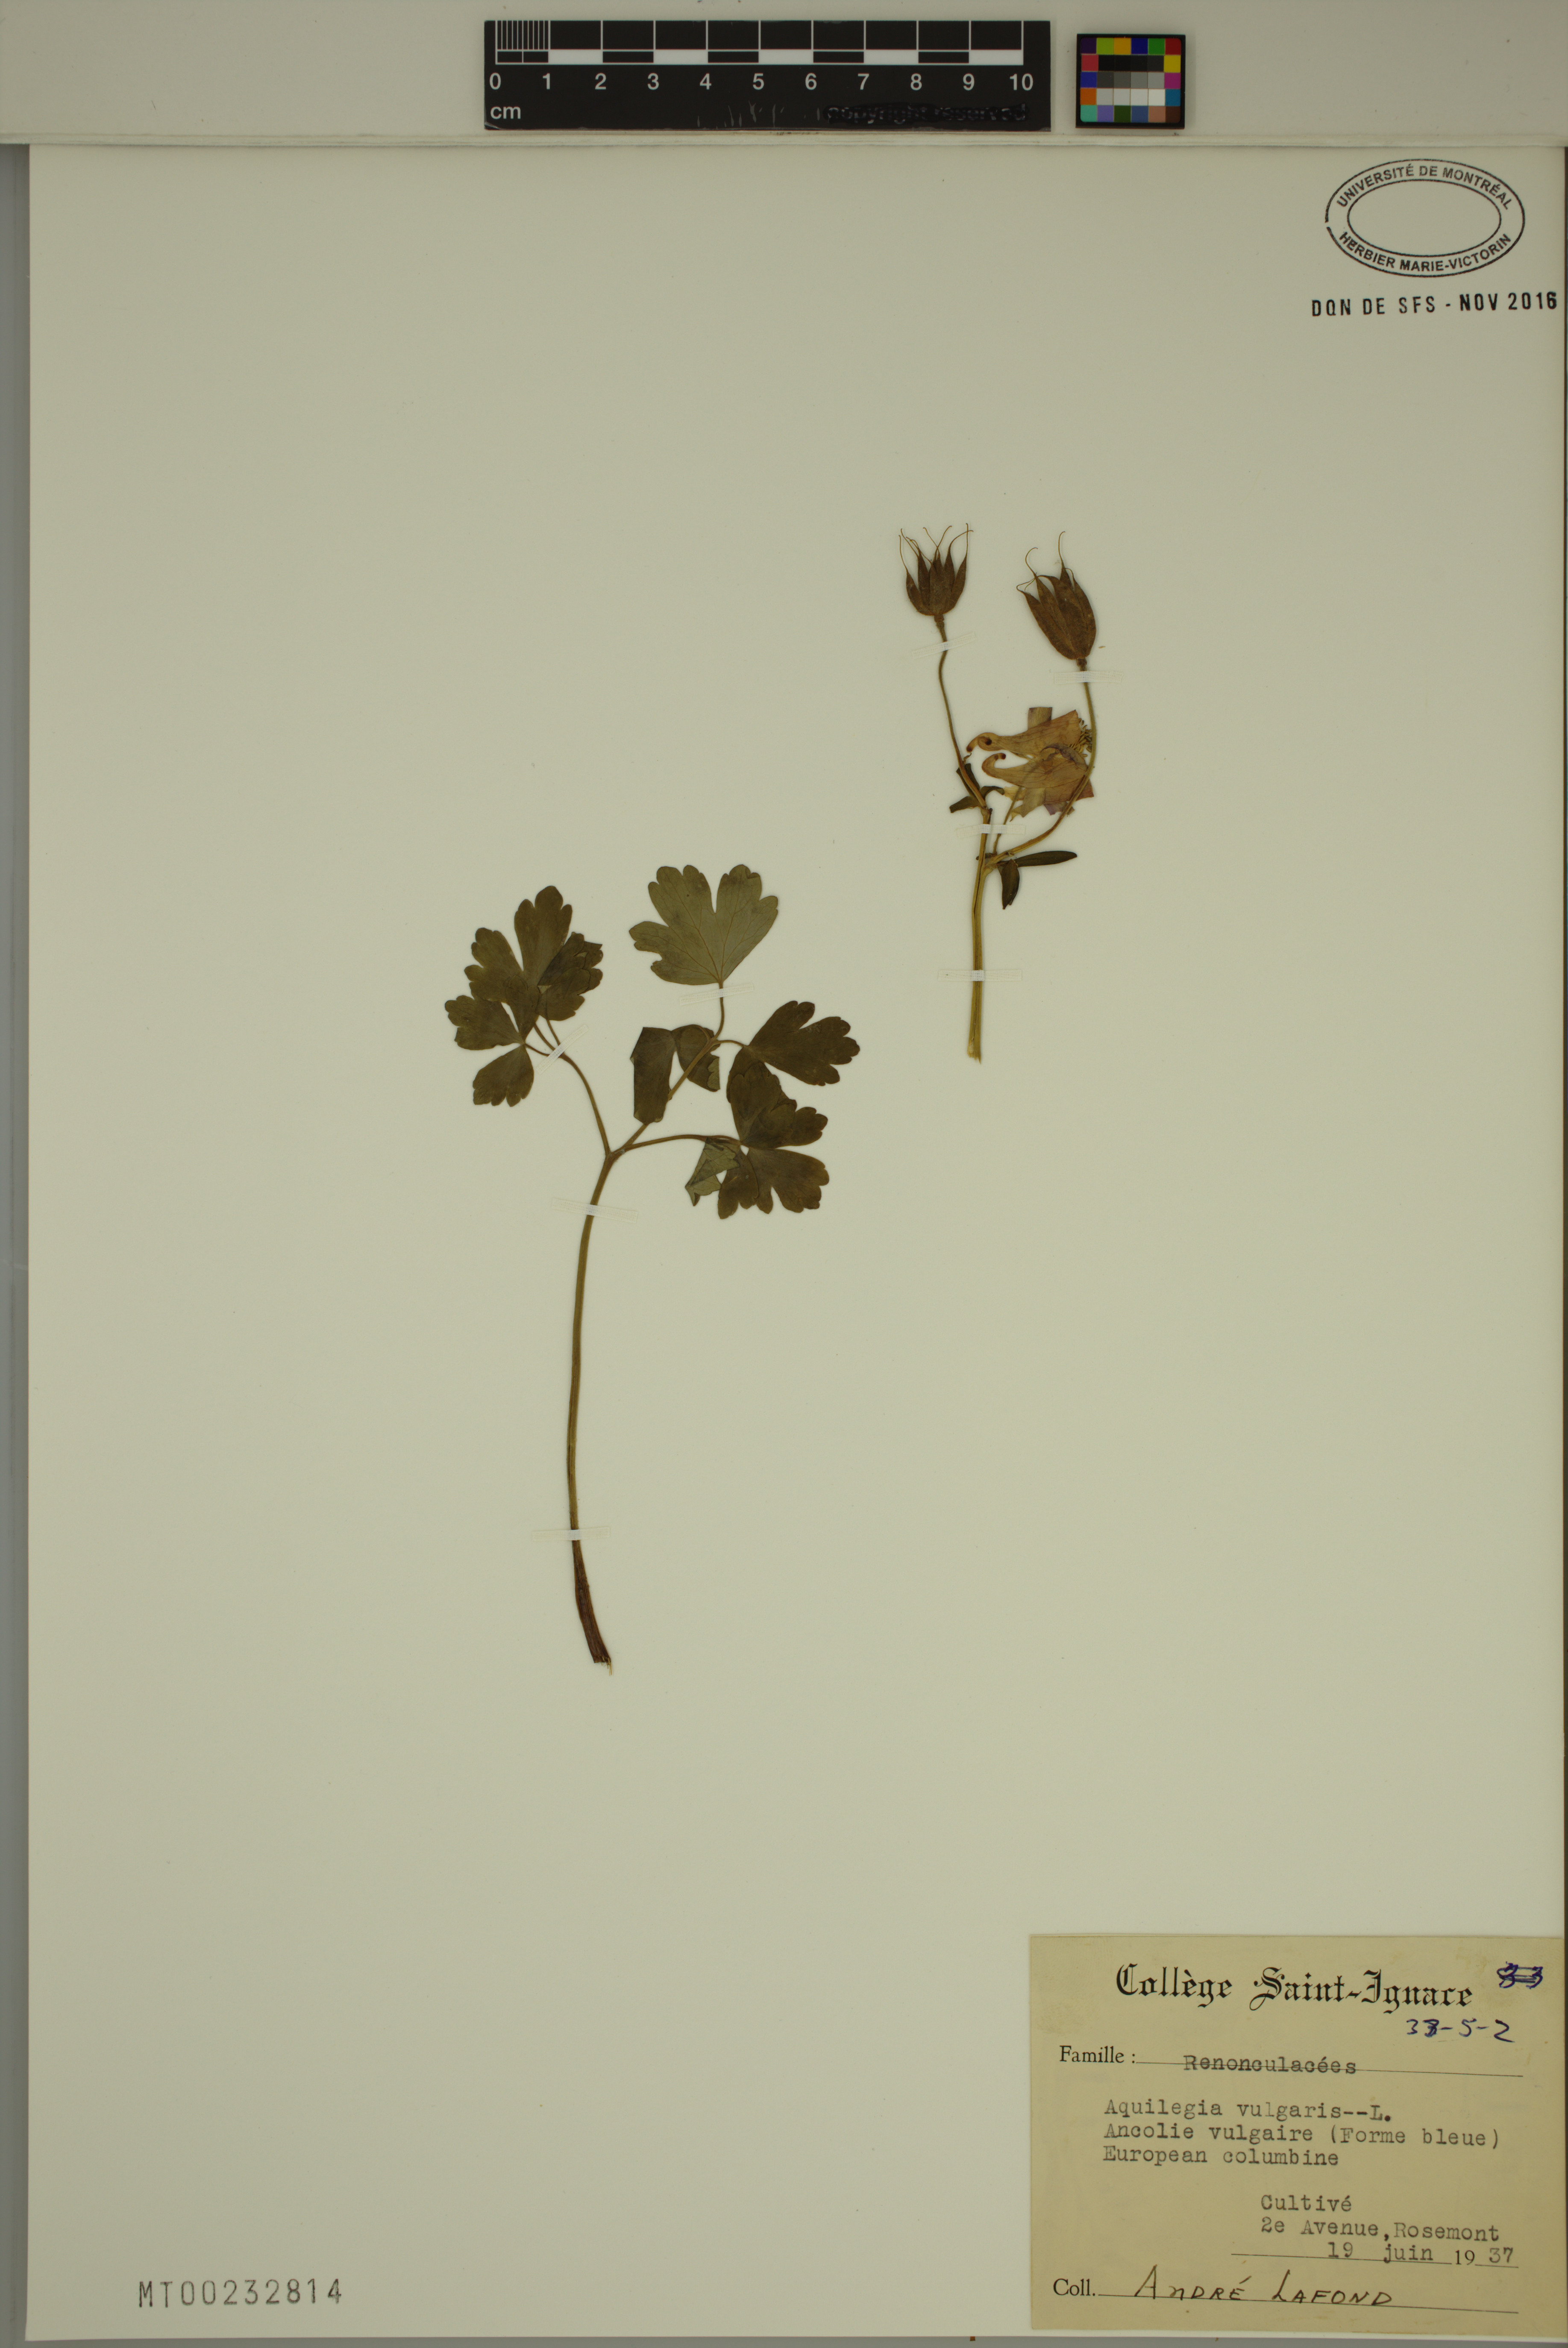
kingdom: Plantae
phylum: Tracheophyta
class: Magnoliopsida
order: Ranunculales
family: Ranunculaceae
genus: Aquilegia
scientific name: Aquilegia vulgaris
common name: Columbine
